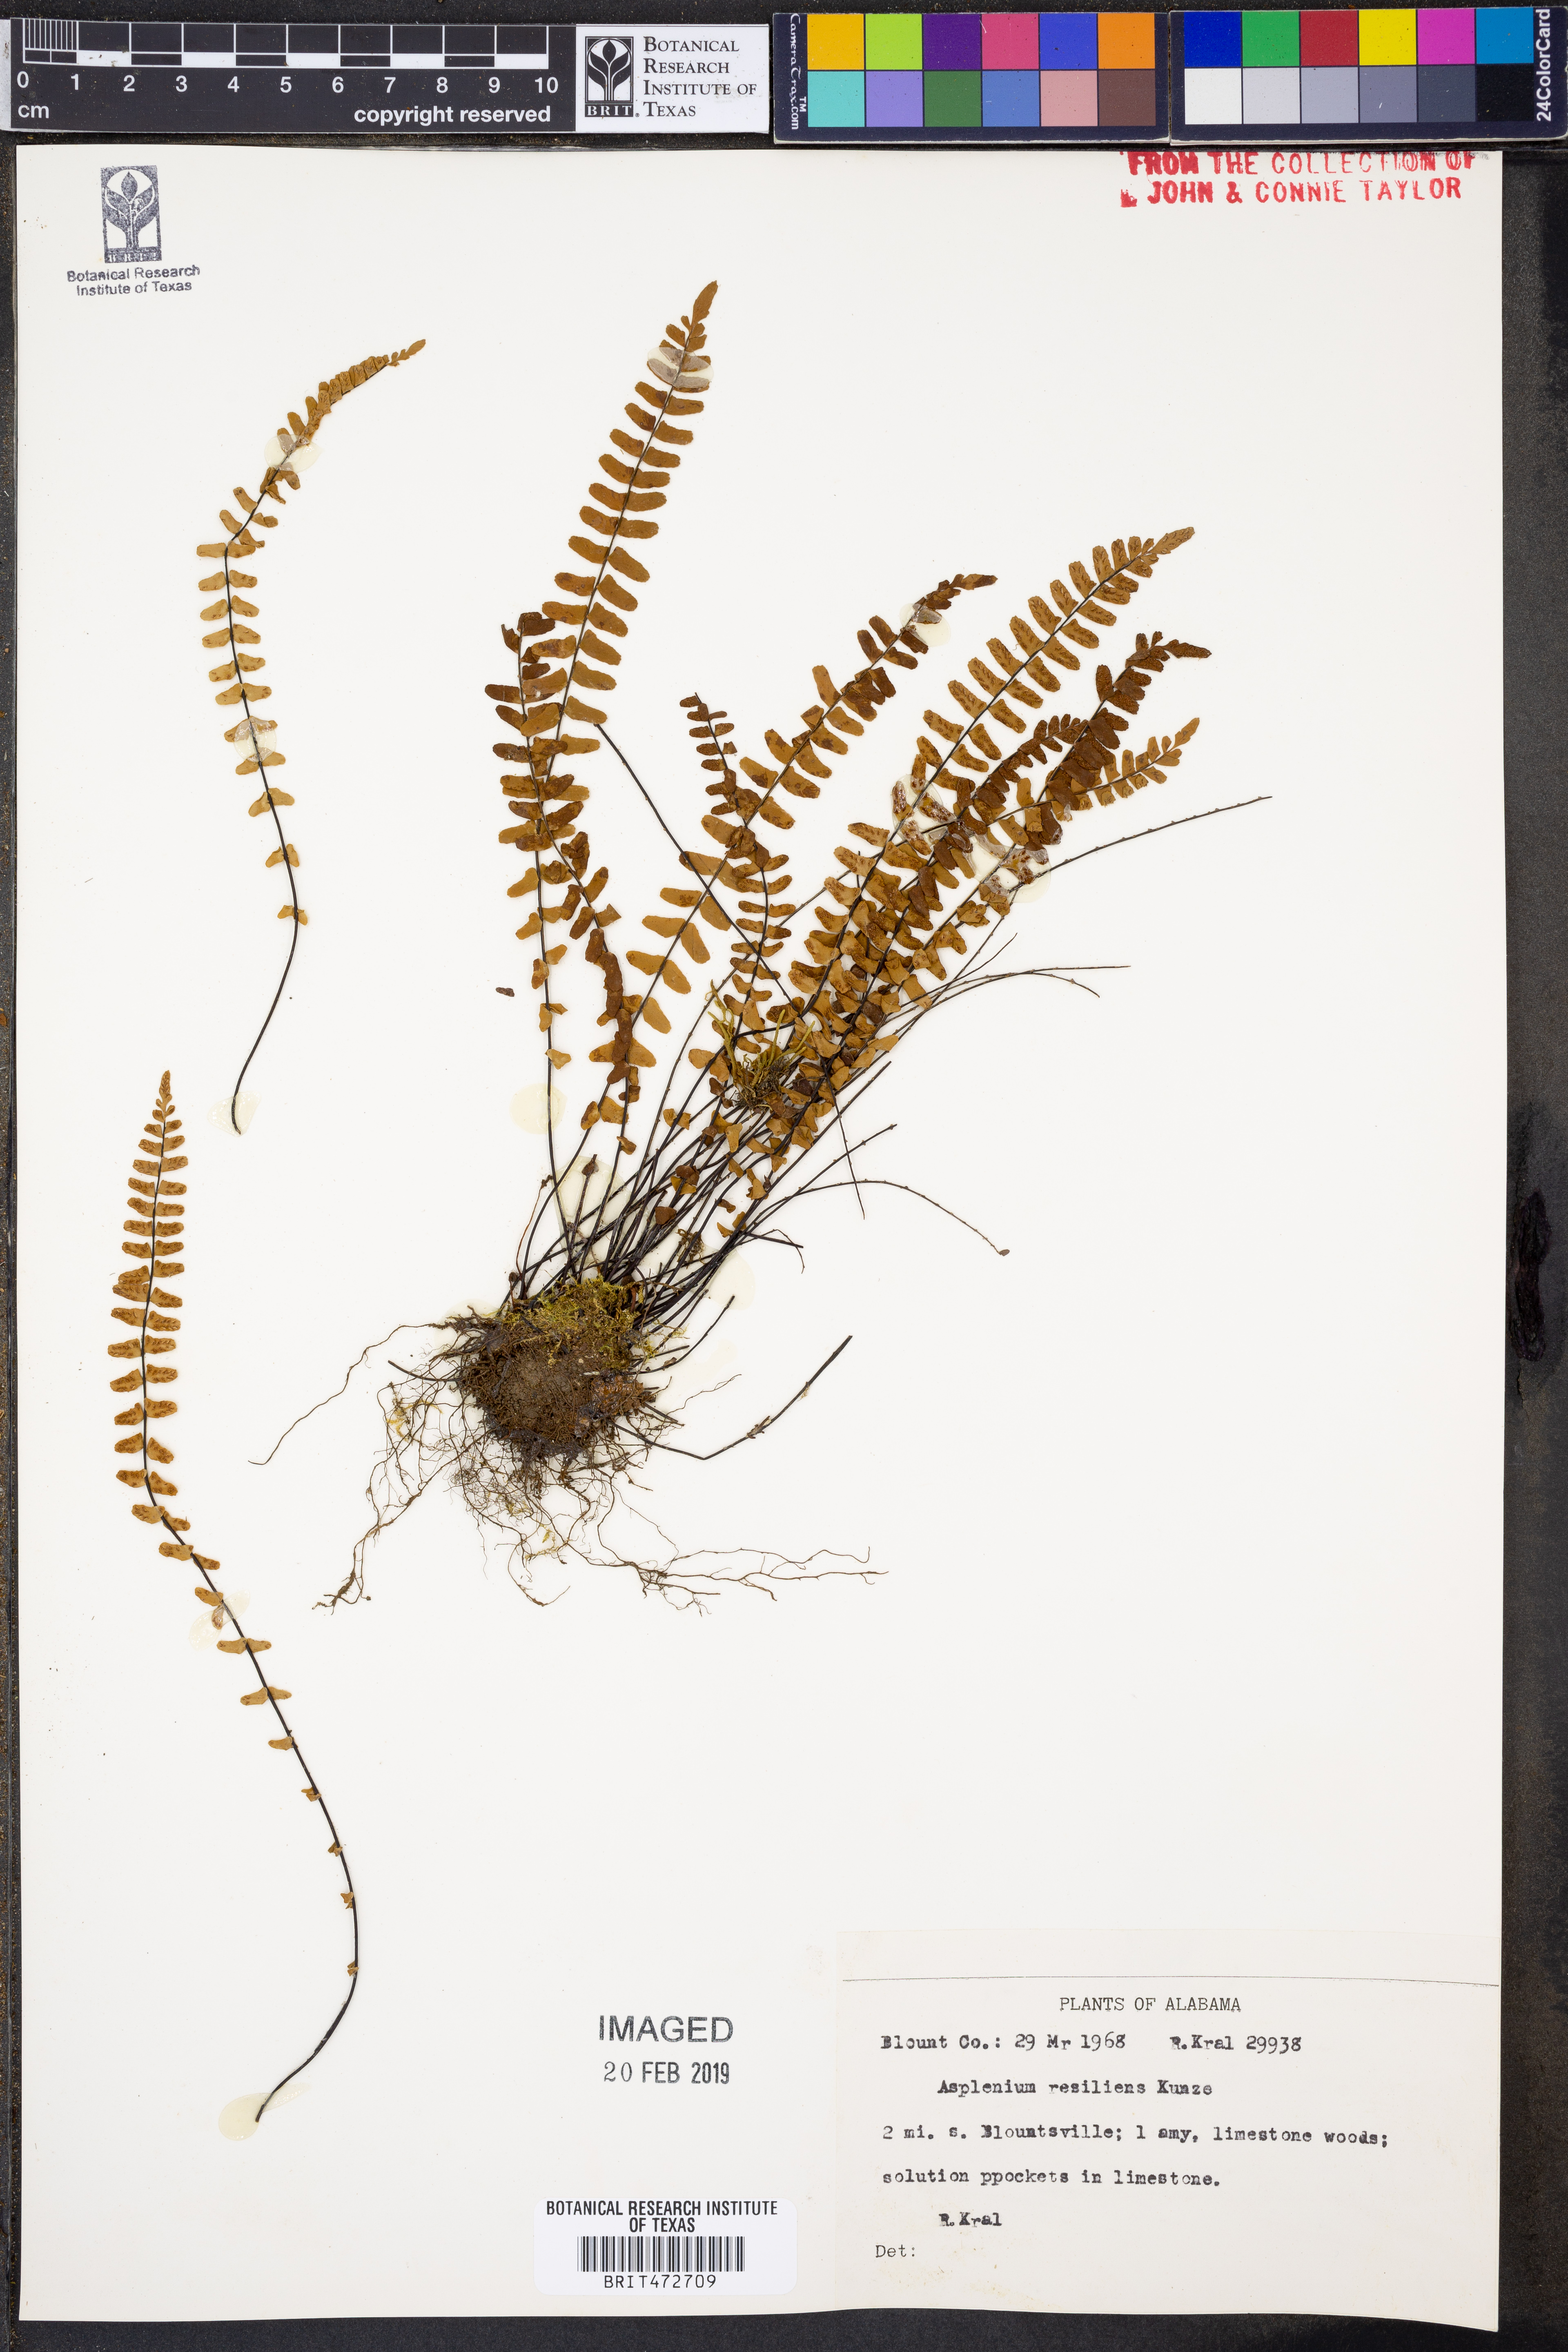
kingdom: Plantae
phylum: Tracheophyta
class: Polypodiopsida
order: Polypodiales
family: Aspleniaceae
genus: Asplenium
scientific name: Asplenium resiliens
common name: Blackstem spleenwort
